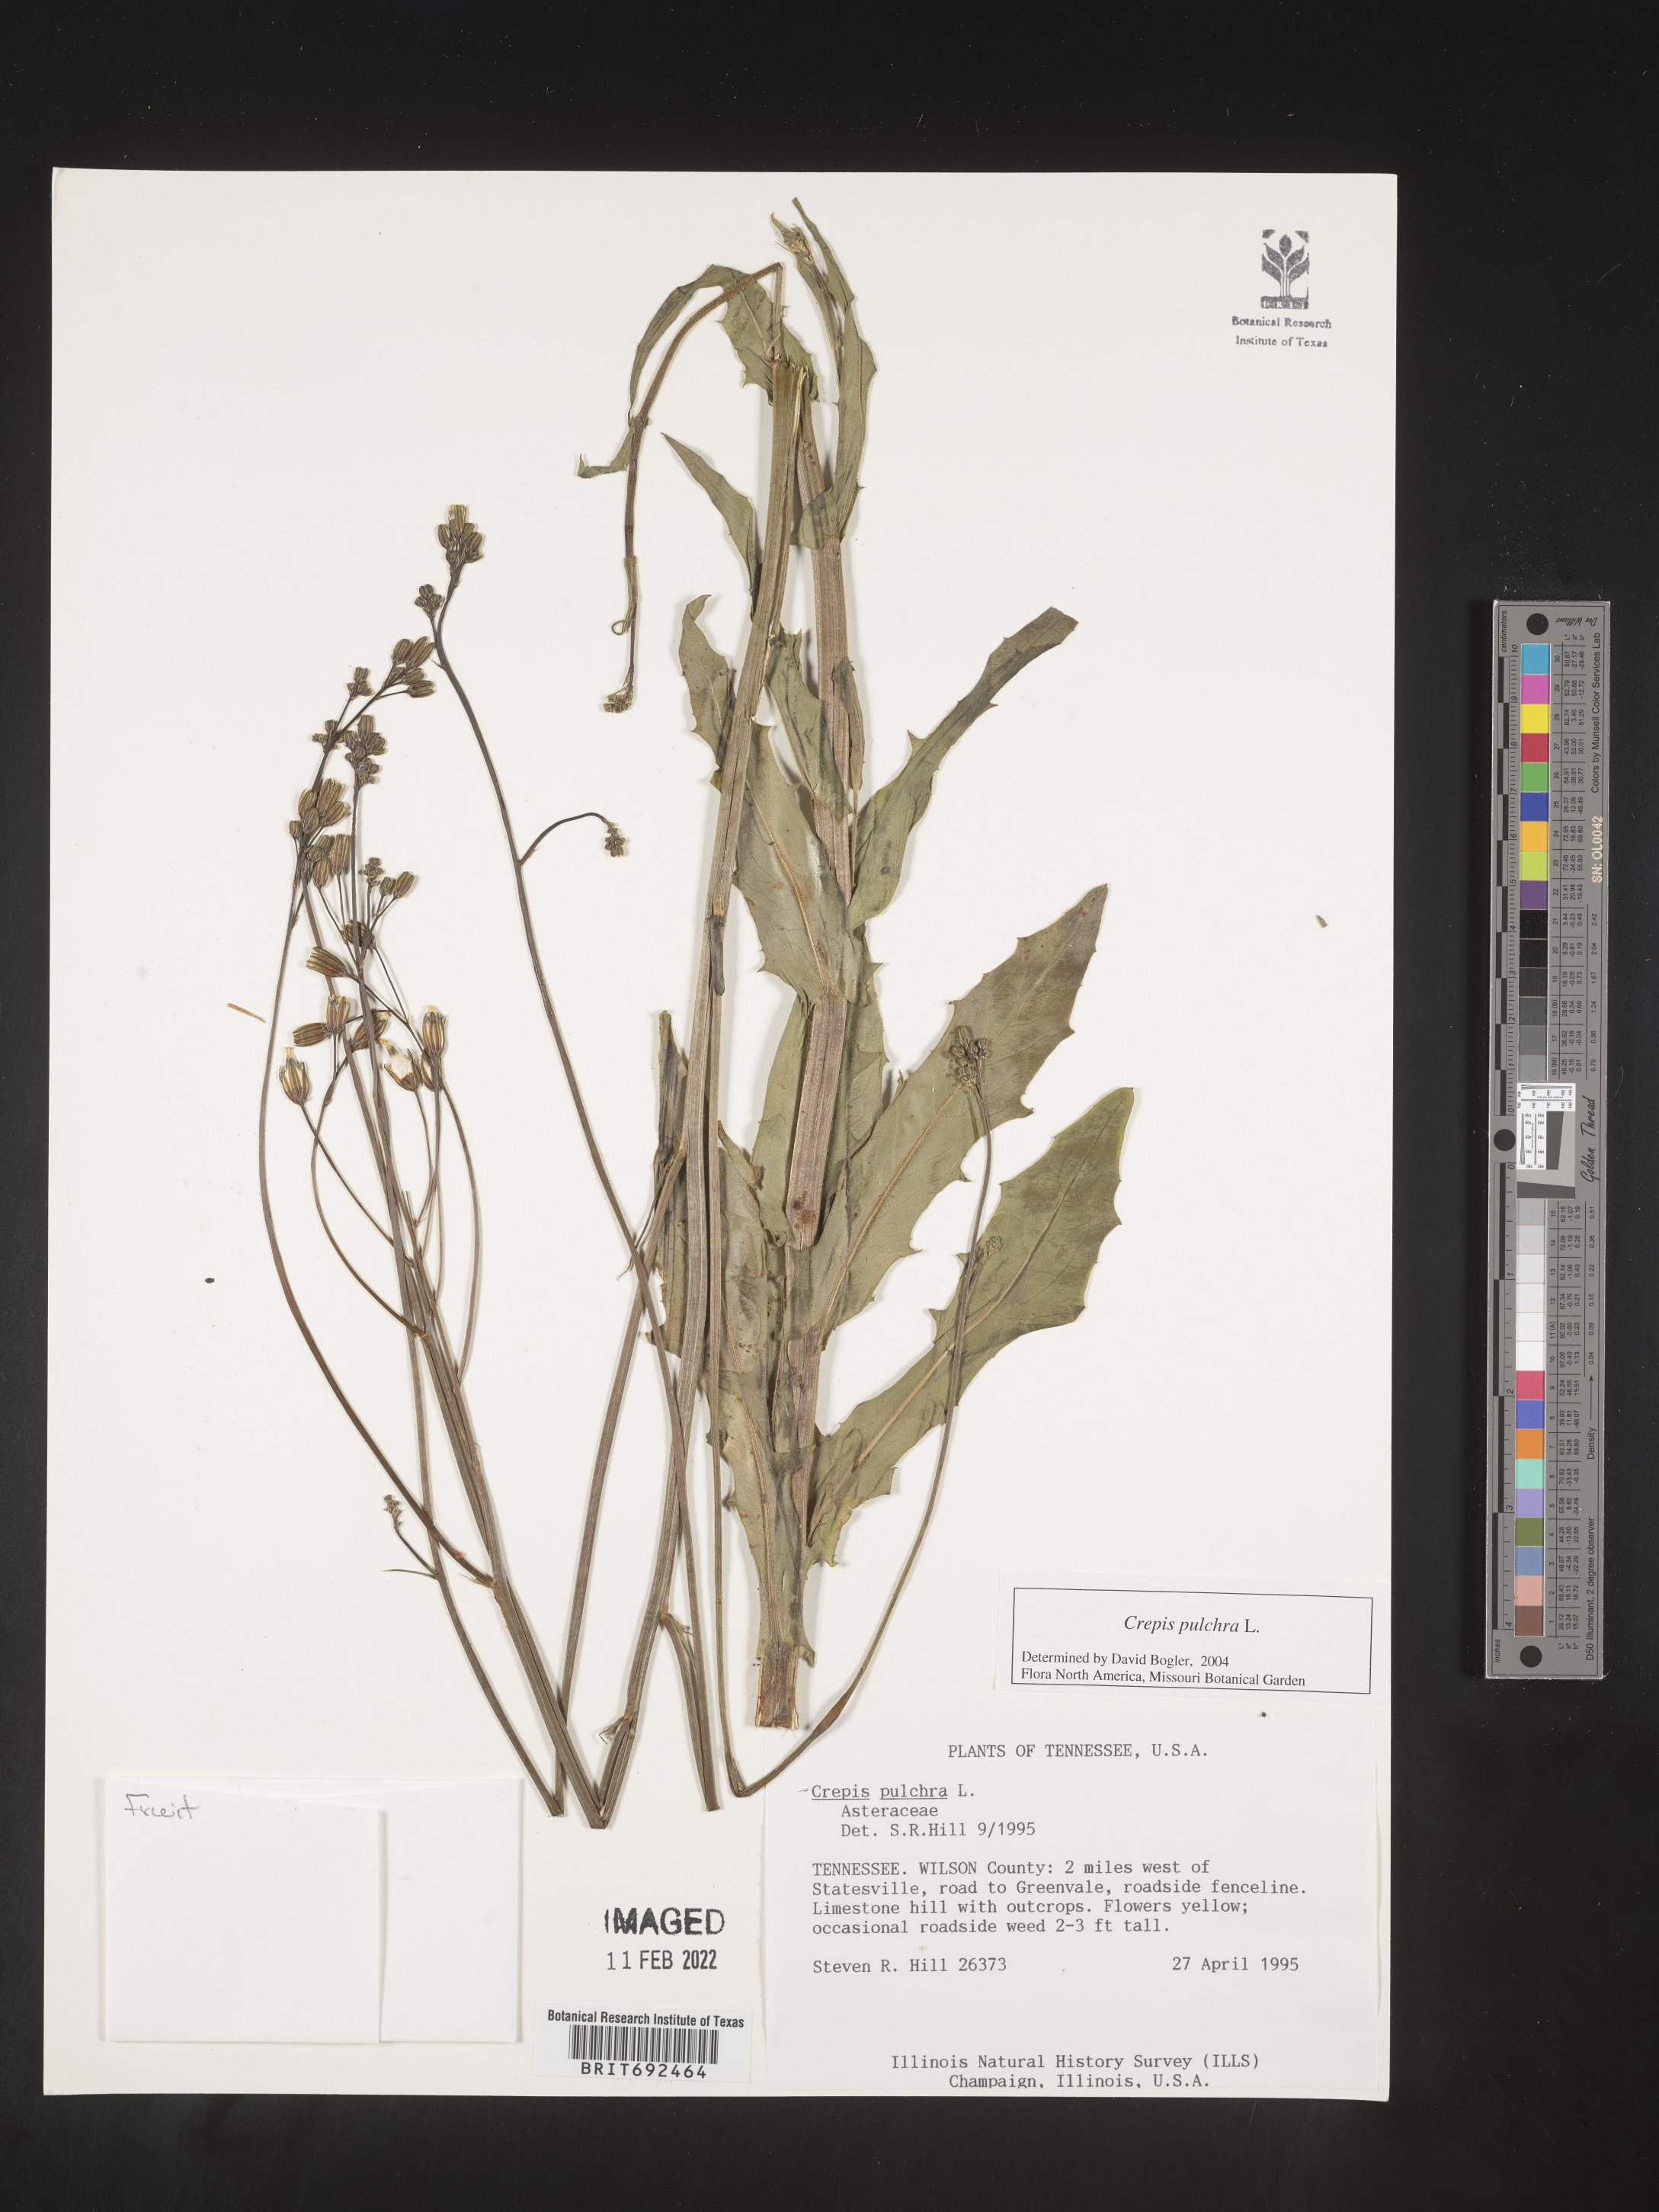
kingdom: Plantae
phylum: Tracheophyta
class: Magnoliopsida
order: Asterales
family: Asteraceae
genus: Crepis
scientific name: Crepis pulchra
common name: Hawk's-beard
